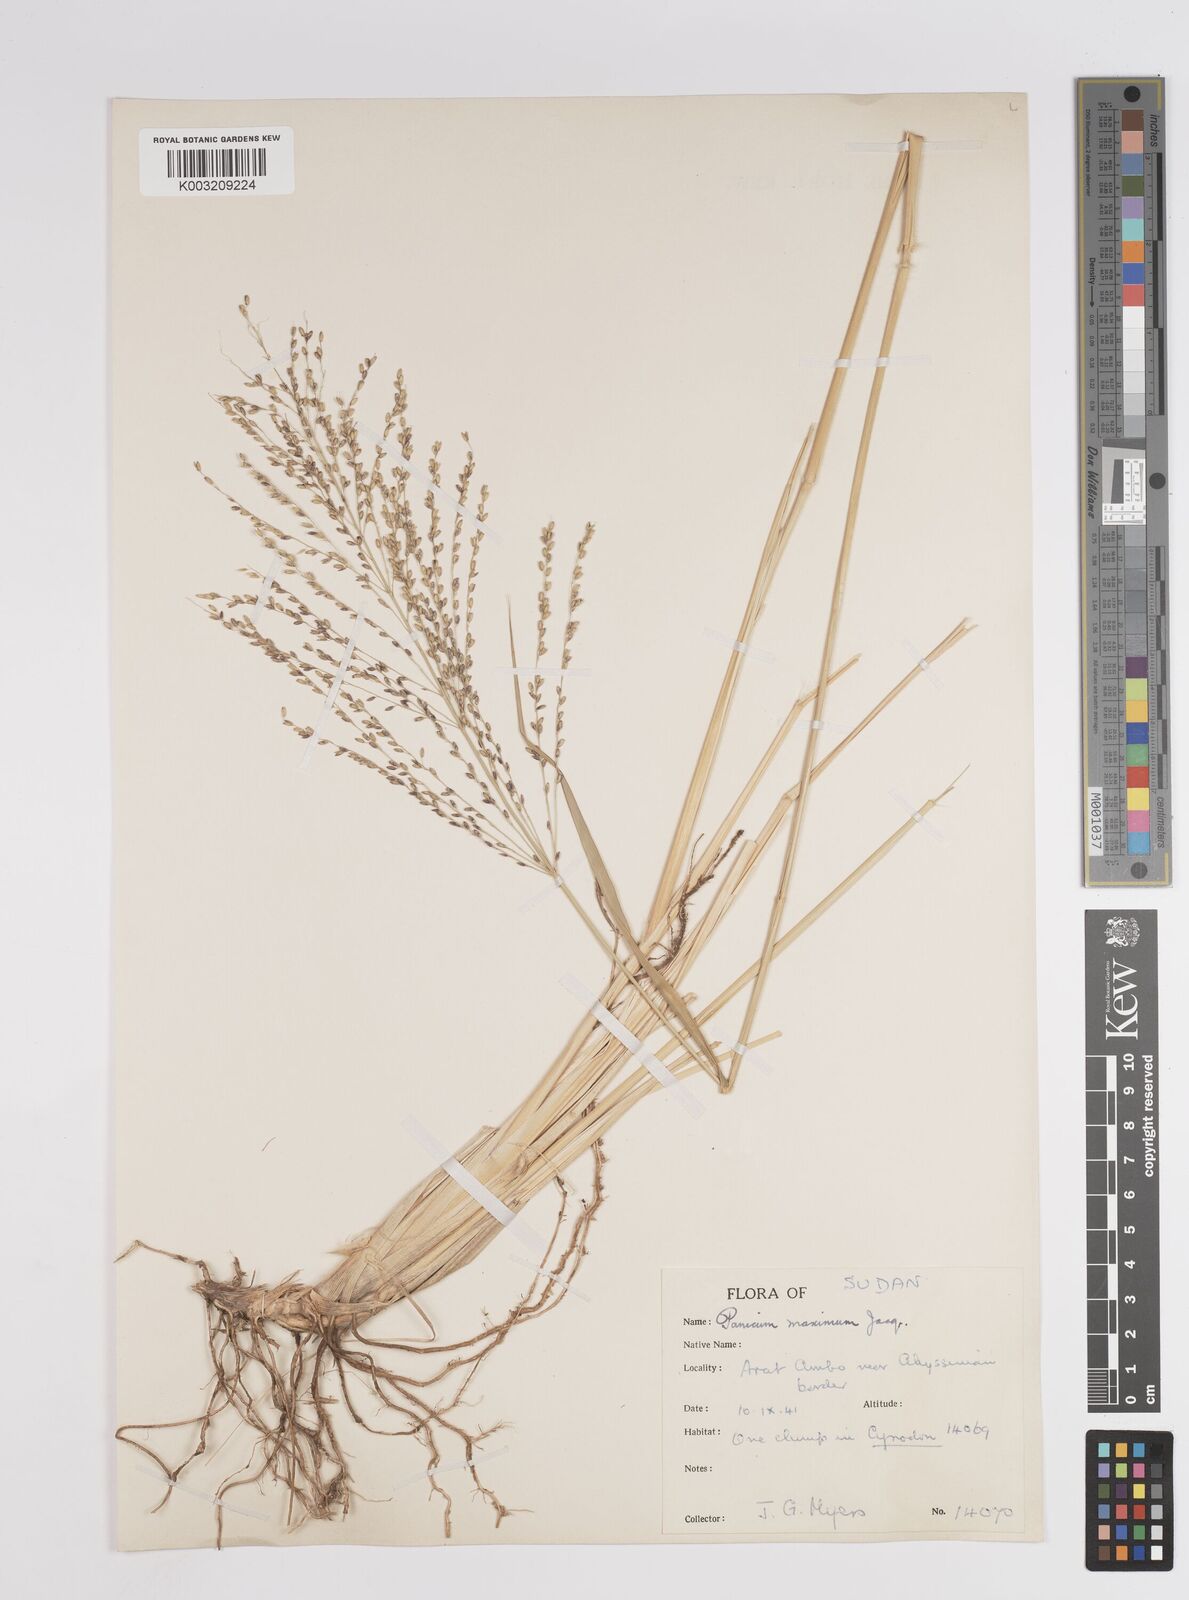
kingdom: Plantae
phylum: Tracheophyta
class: Liliopsida
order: Poales
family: Poaceae
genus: Megathyrsus
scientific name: Megathyrsus maximus
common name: Guineagrass
